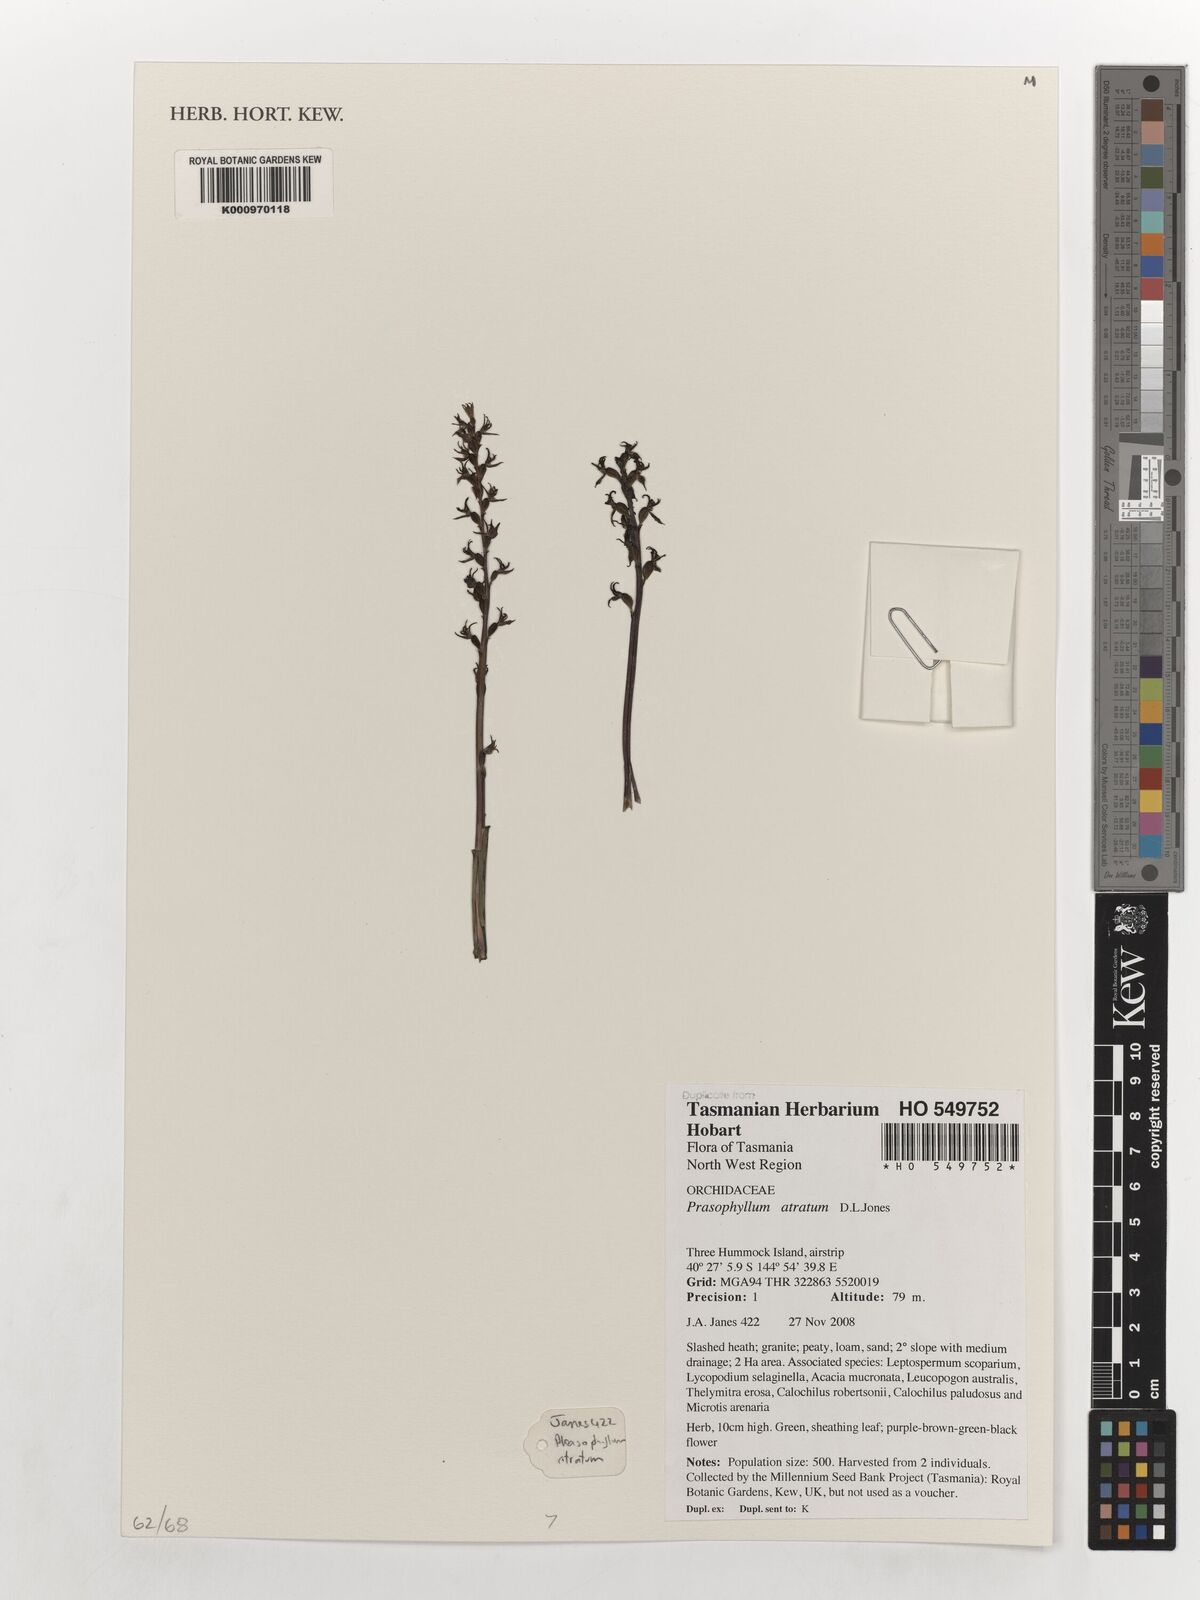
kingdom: Plantae
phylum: Tracheophyta
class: Liliopsida
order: Asparagales
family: Orchidaceae
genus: Prasophyllum
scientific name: Prasophyllum atratum
